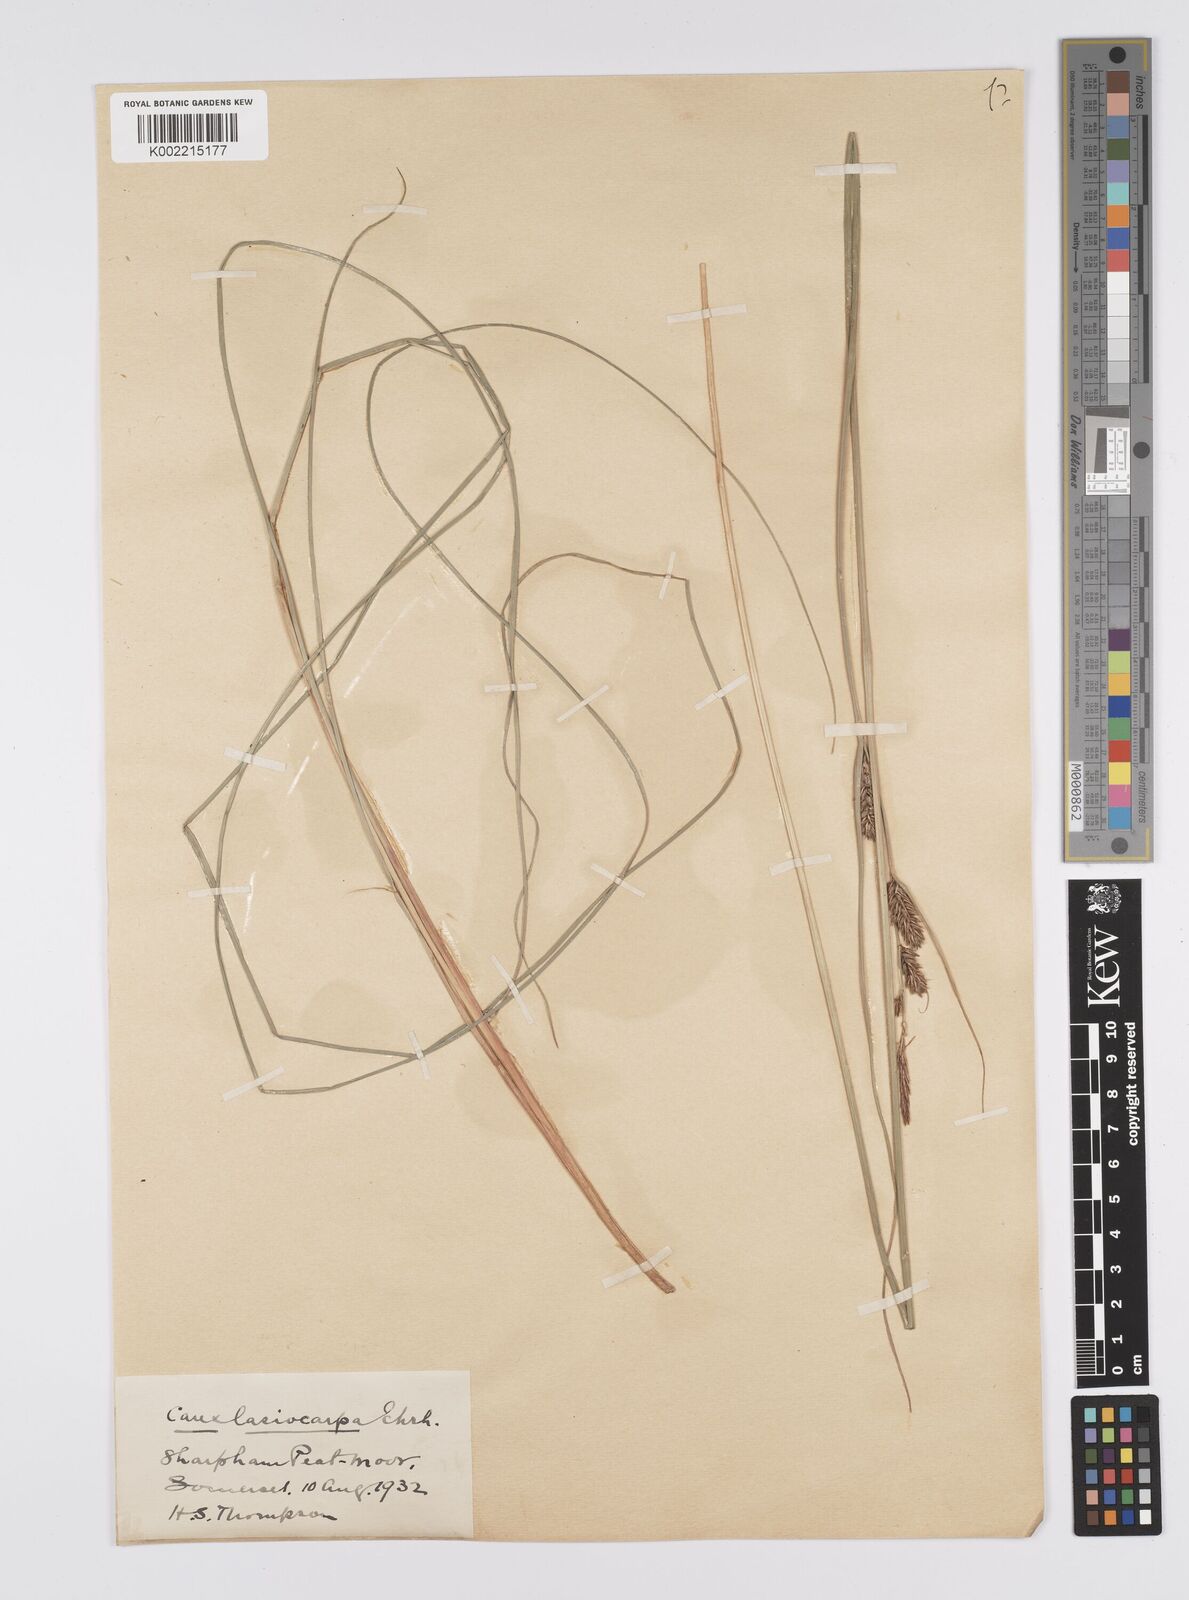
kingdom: Plantae
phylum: Tracheophyta
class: Liliopsida
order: Poales
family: Cyperaceae
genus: Carex
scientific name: Carex lasiocarpa
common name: Slender sedge
